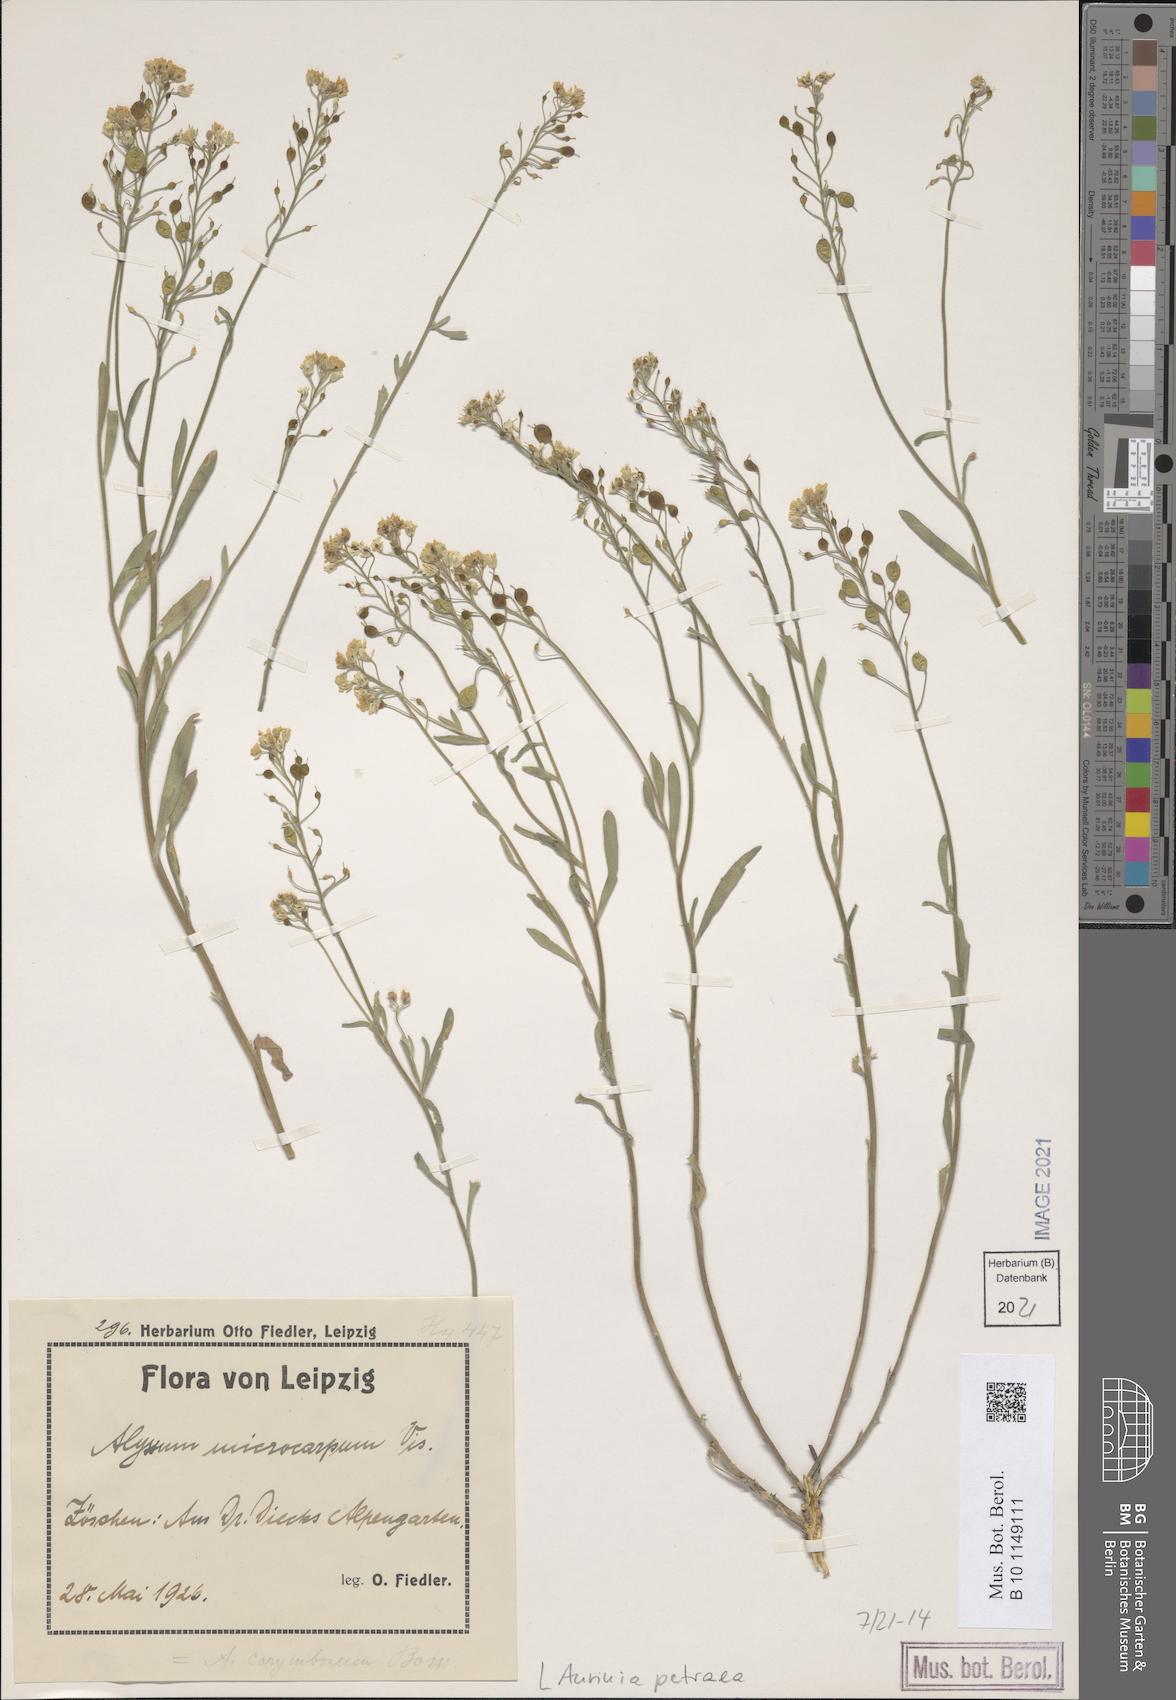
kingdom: Plantae
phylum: Tracheophyta
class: Magnoliopsida
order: Brassicales
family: Brassicaceae
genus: Aurinia
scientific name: Aurinia petraea
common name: Goldentuft
